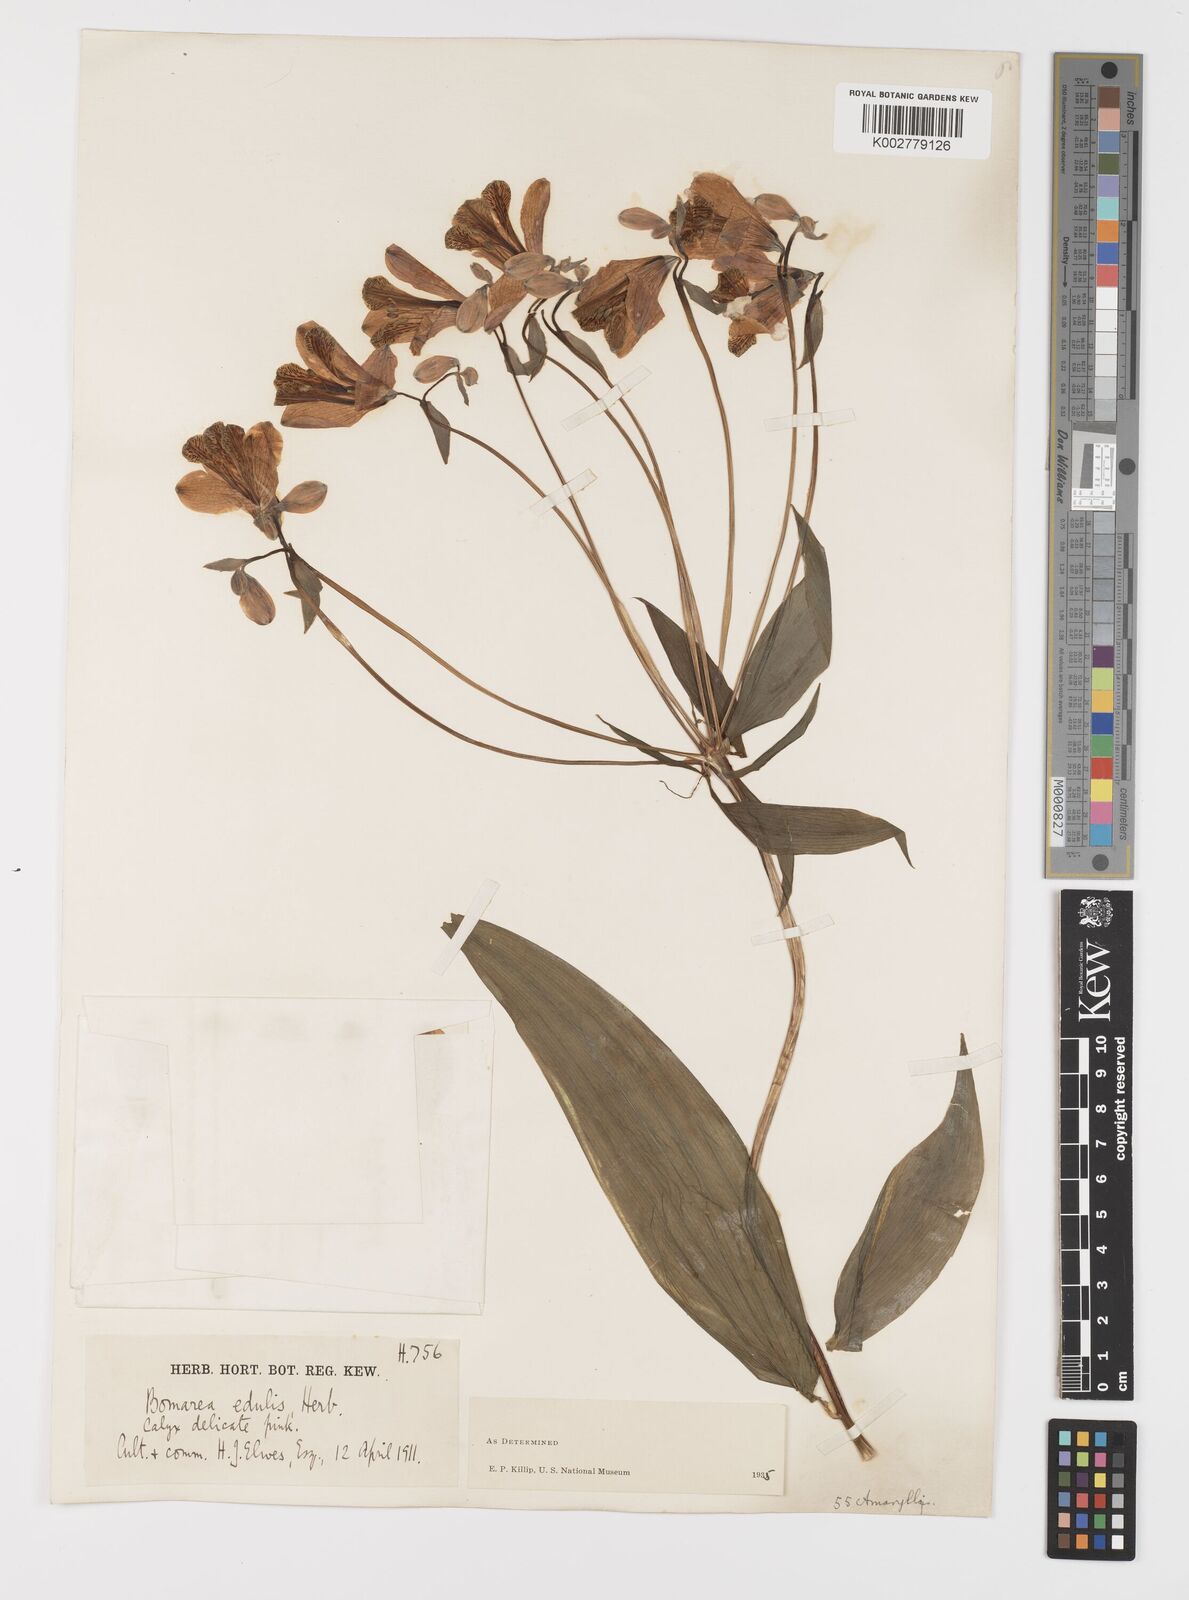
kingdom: Plantae
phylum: Tracheophyta
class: Liliopsida
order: Liliales
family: Alstroemeriaceae
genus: Bomarea
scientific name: Bomarea edulis
